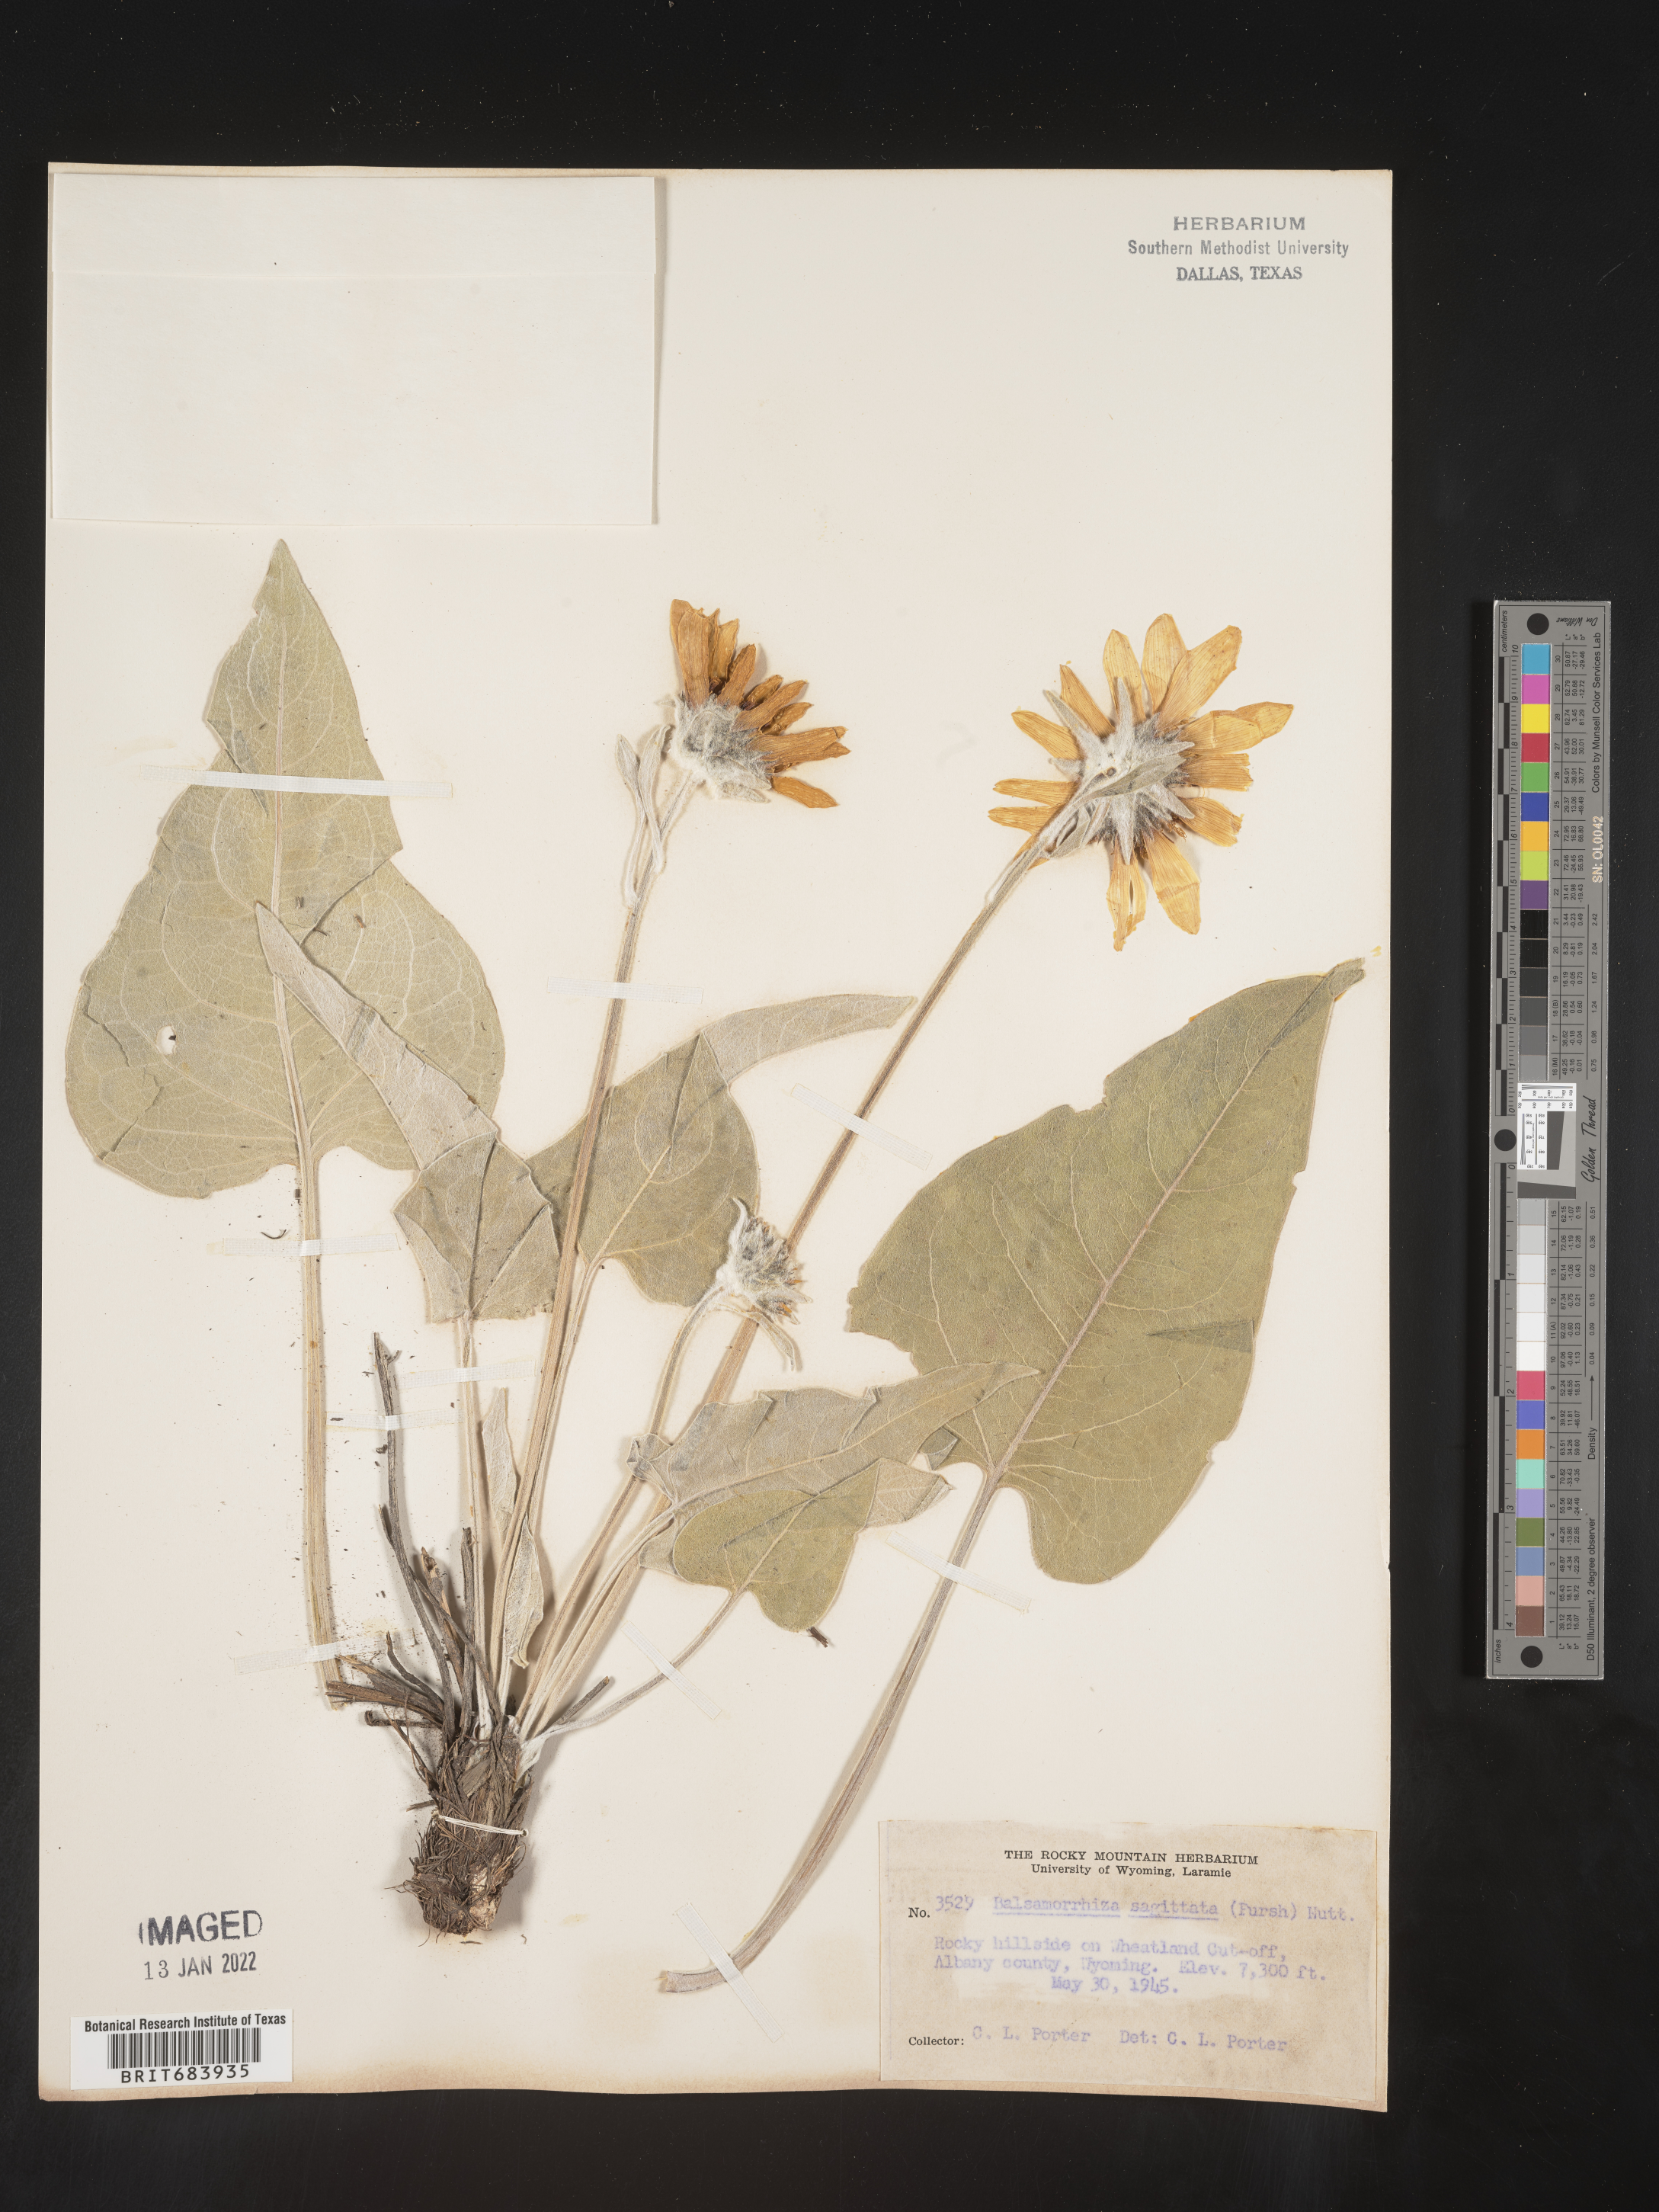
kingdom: Plantae
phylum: Tracheophyta
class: Magnoliopsida
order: Asterales
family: Asteraceae
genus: Wyethia
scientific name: Wyethia sagittata
